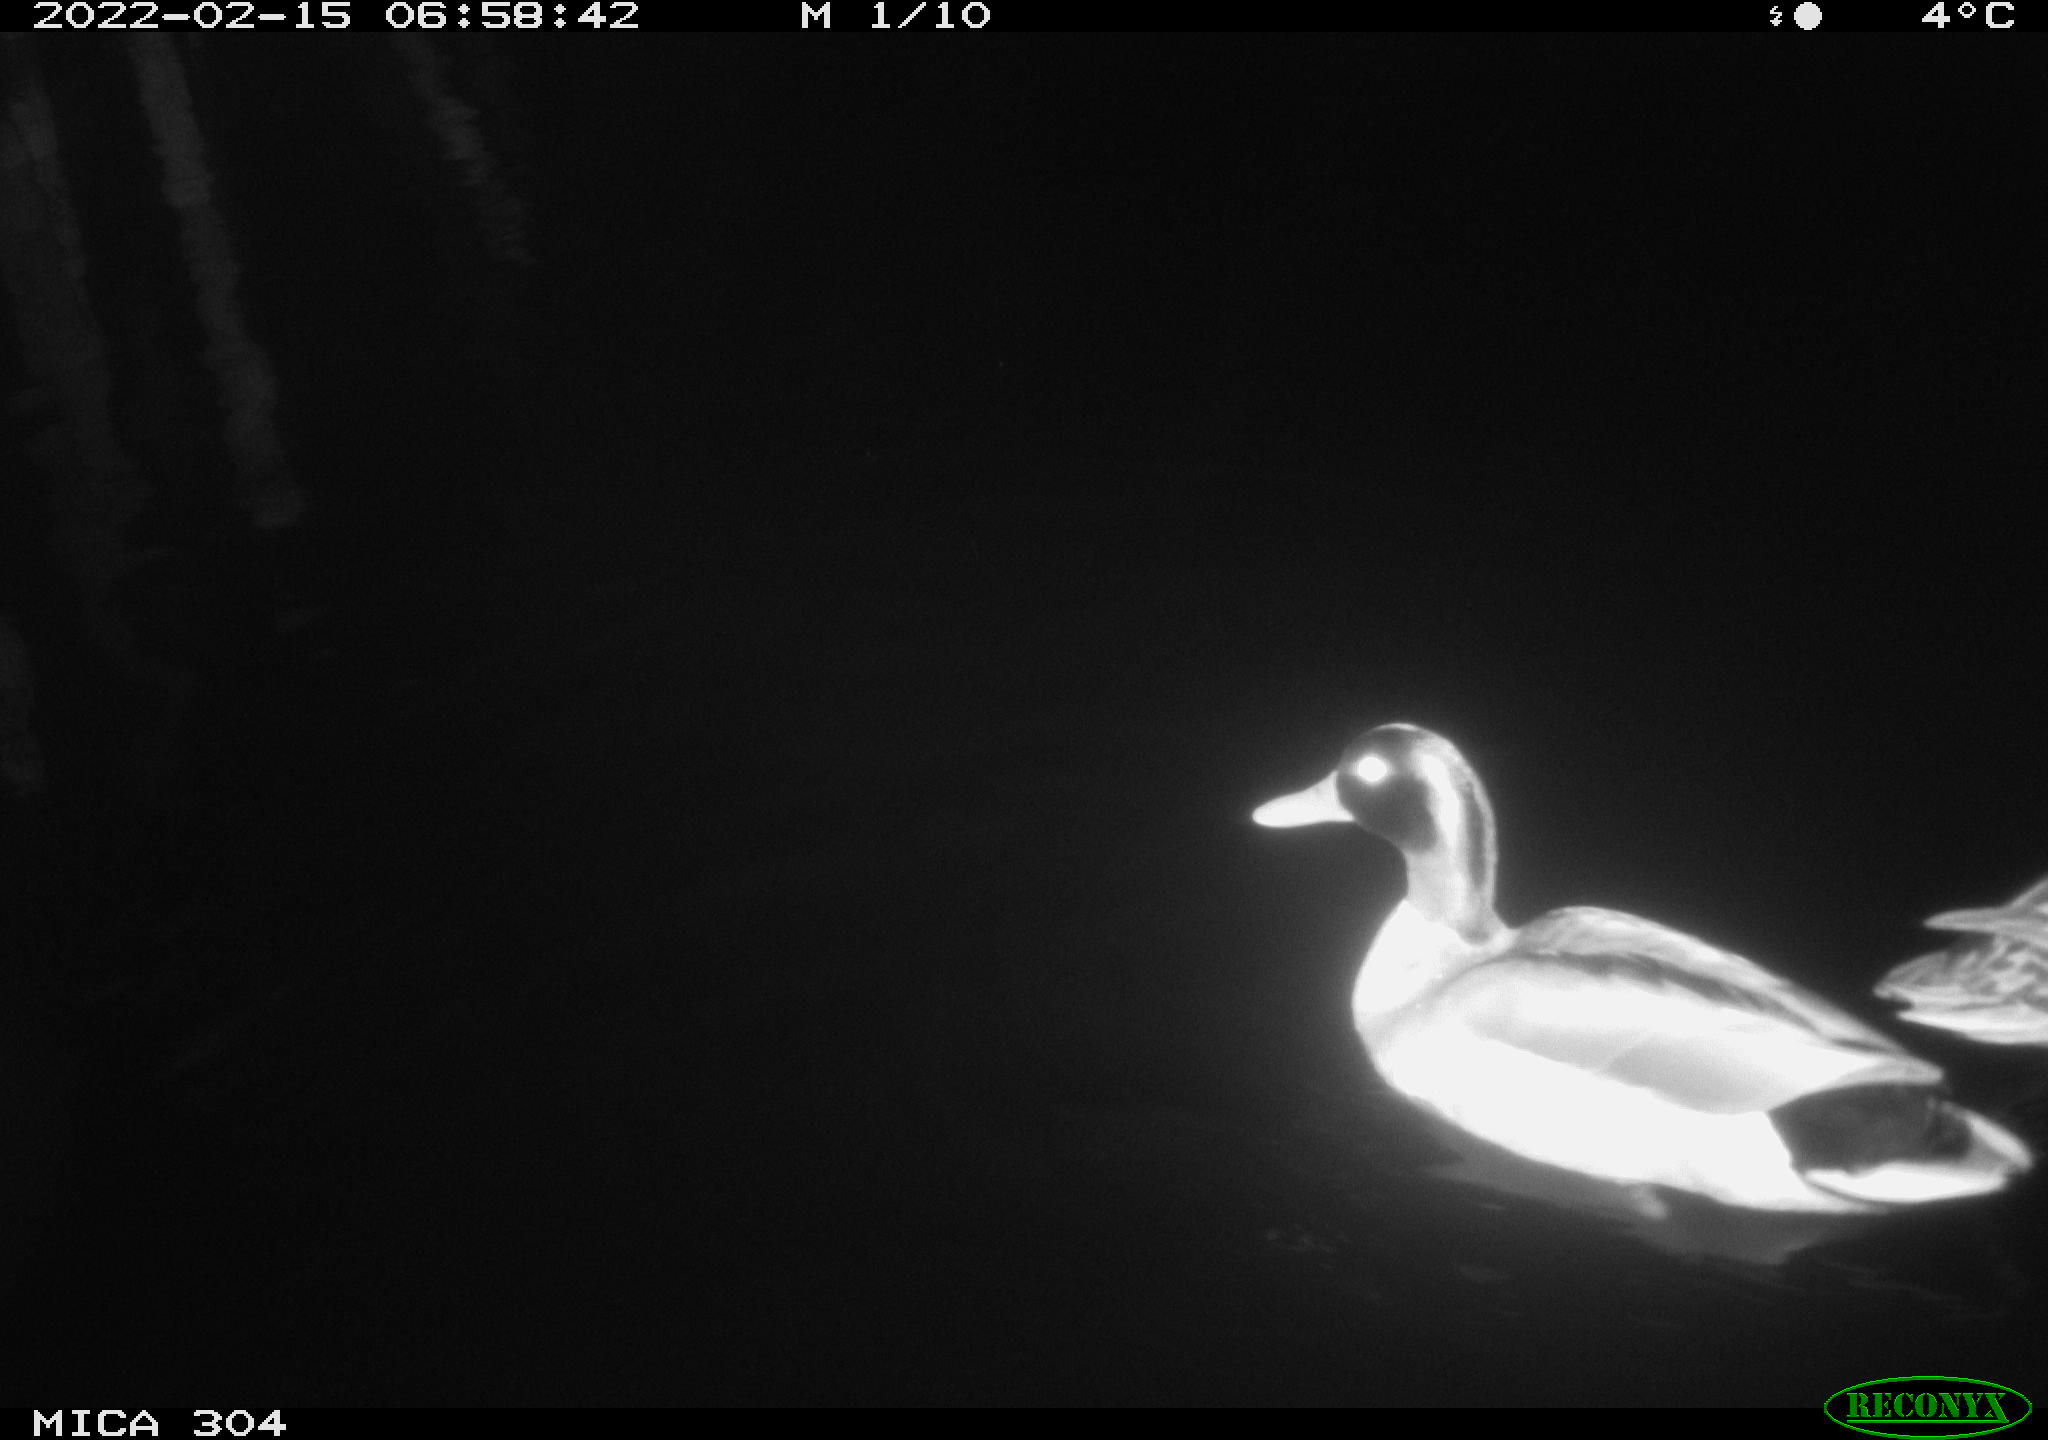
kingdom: Animalia
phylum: Chordata
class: Aves
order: Anseriformes
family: Anatidae
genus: Anas
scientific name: Anas platyrhynchos
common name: Mallard
